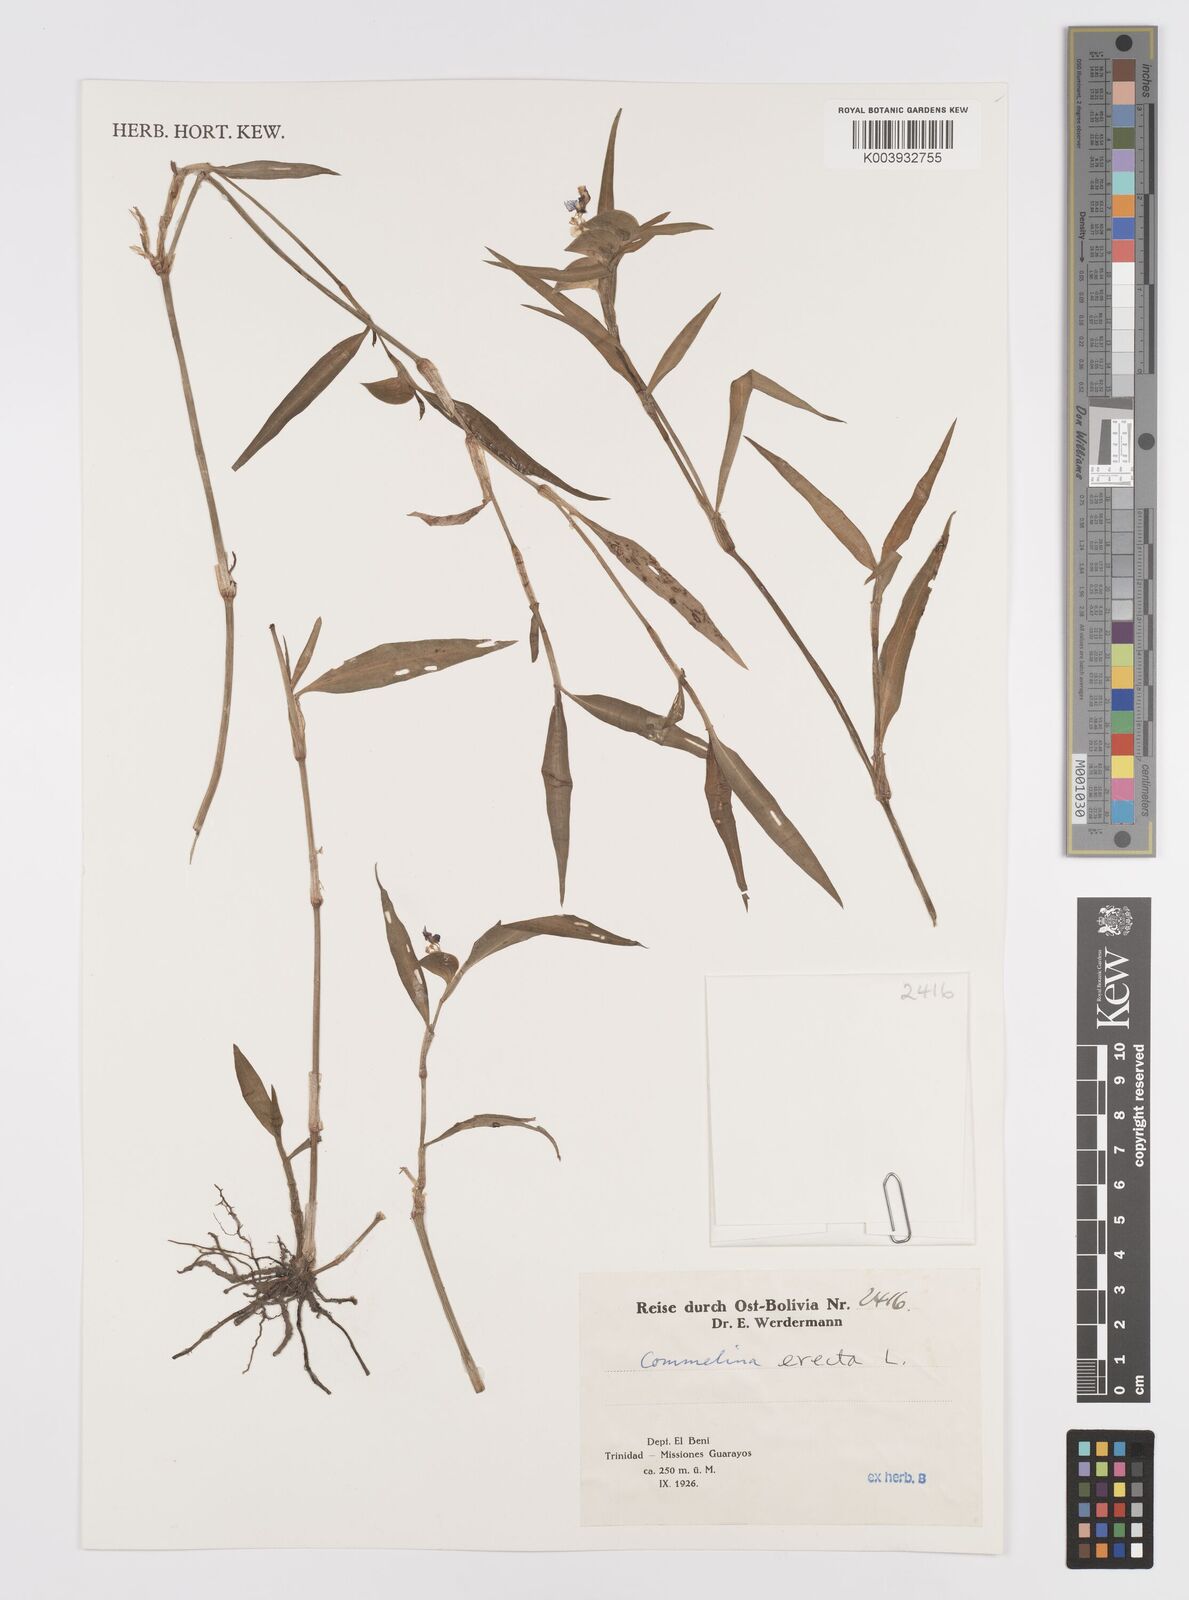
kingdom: Plantae
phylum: Tracheophyta
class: Liliopsida
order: Commelinales
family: Commelinaceae
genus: Commelina
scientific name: Commelina erecta
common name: Blousel blommetjie
